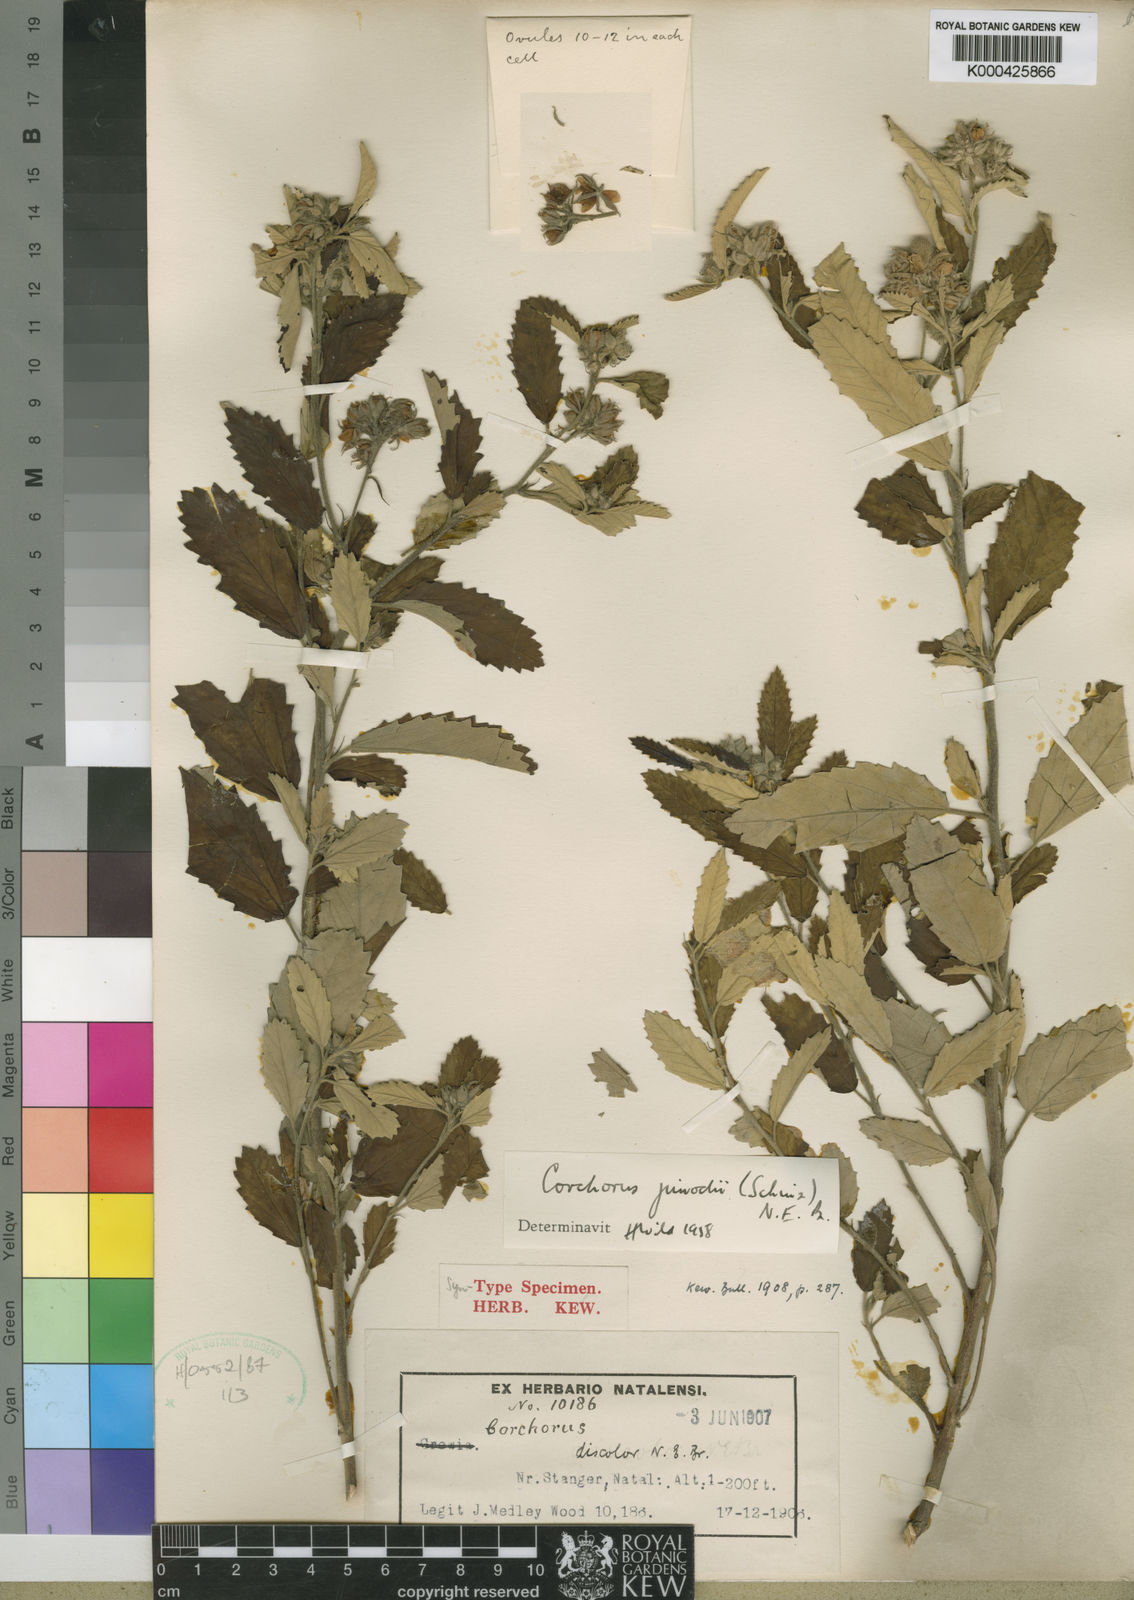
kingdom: Plantae
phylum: Tracheophyta
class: Magnoliopsida
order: Malvales
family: Malvaceae
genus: Corchorus
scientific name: Corchorus junodii
